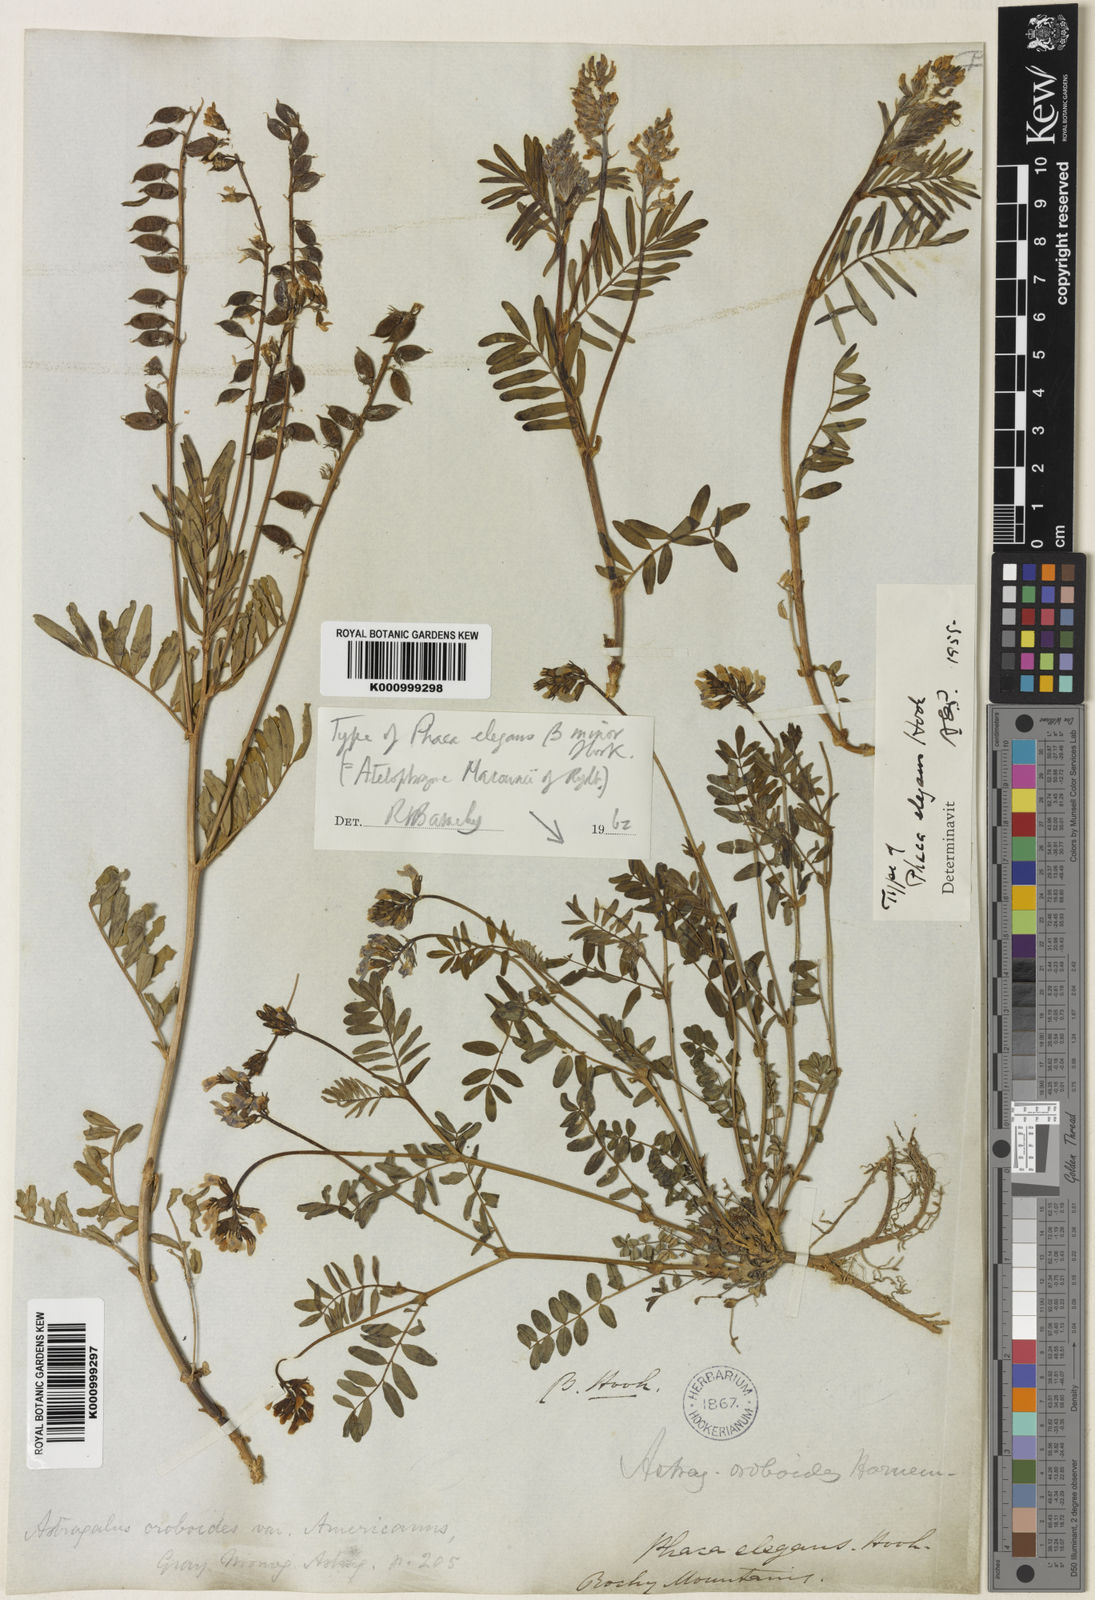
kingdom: Plantae
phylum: Tracheophyta
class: Magnoliopsida
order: Fabales
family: Fabaceae
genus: Astragalus
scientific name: Astragalus norvegicus
